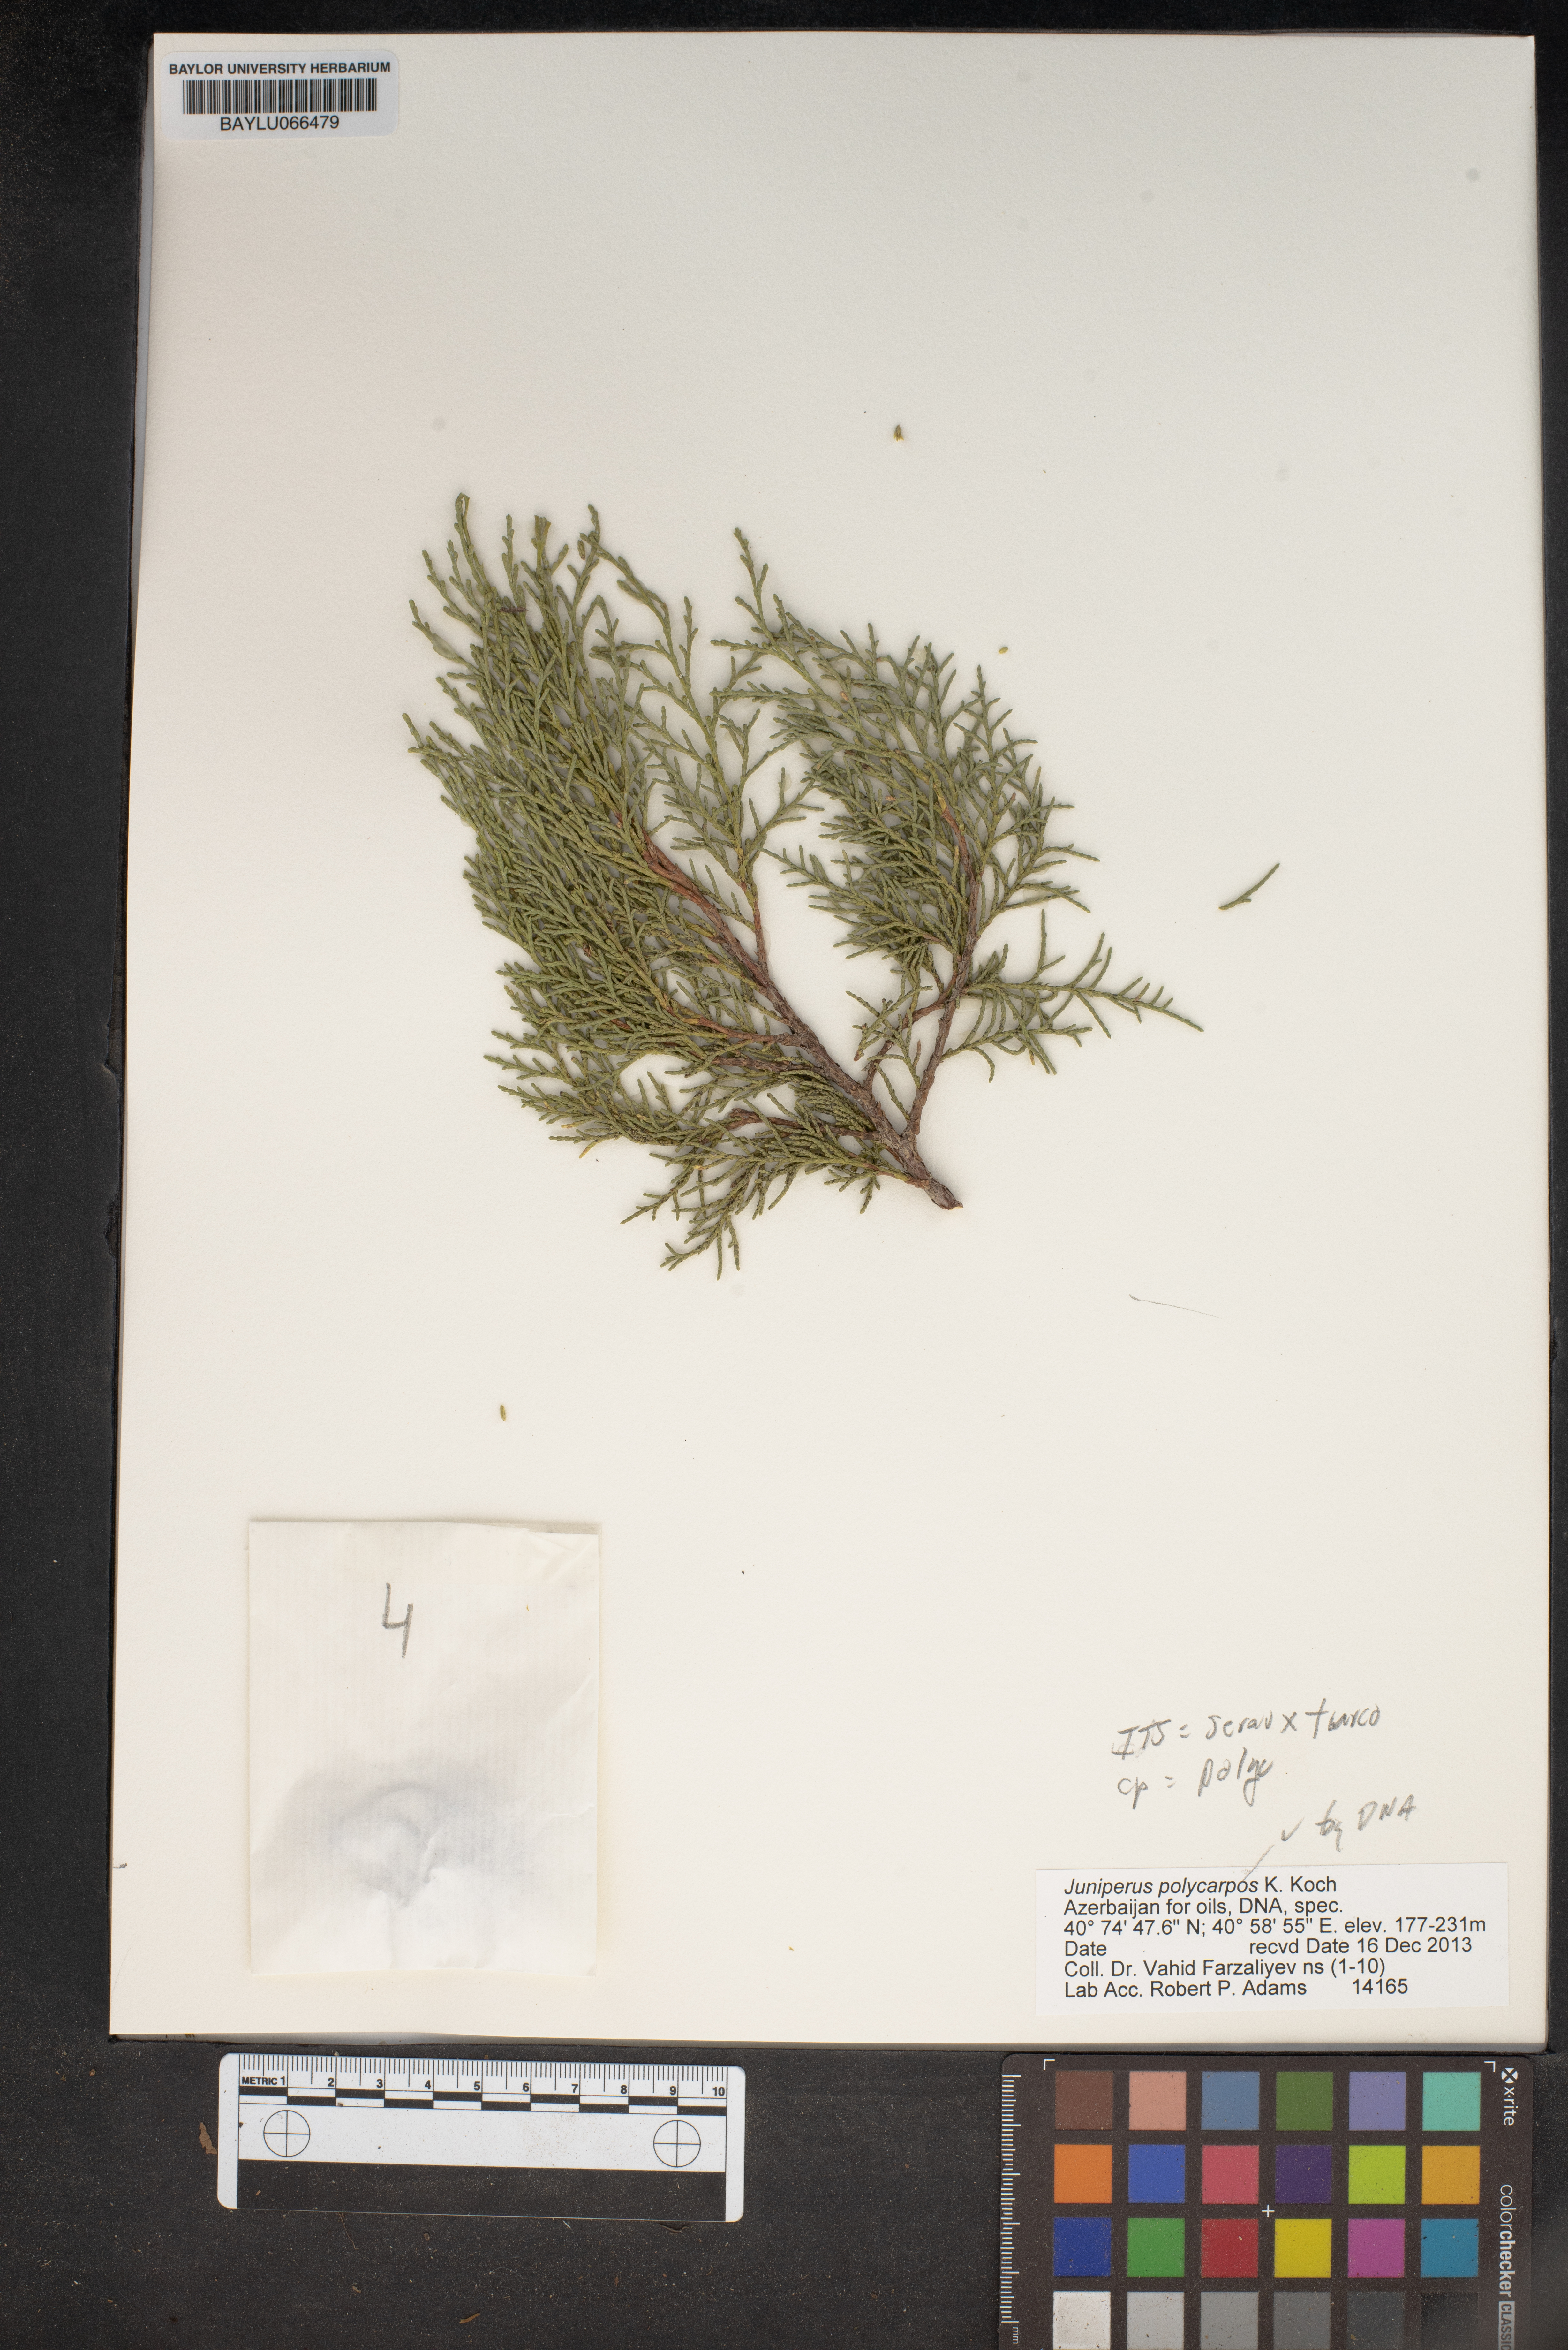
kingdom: Plantae
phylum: Tracheophyta
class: Pinopsida
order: Pinales
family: Cupressaceae
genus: Juniperus
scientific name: Juniperus excelsa
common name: Crimean juniper
